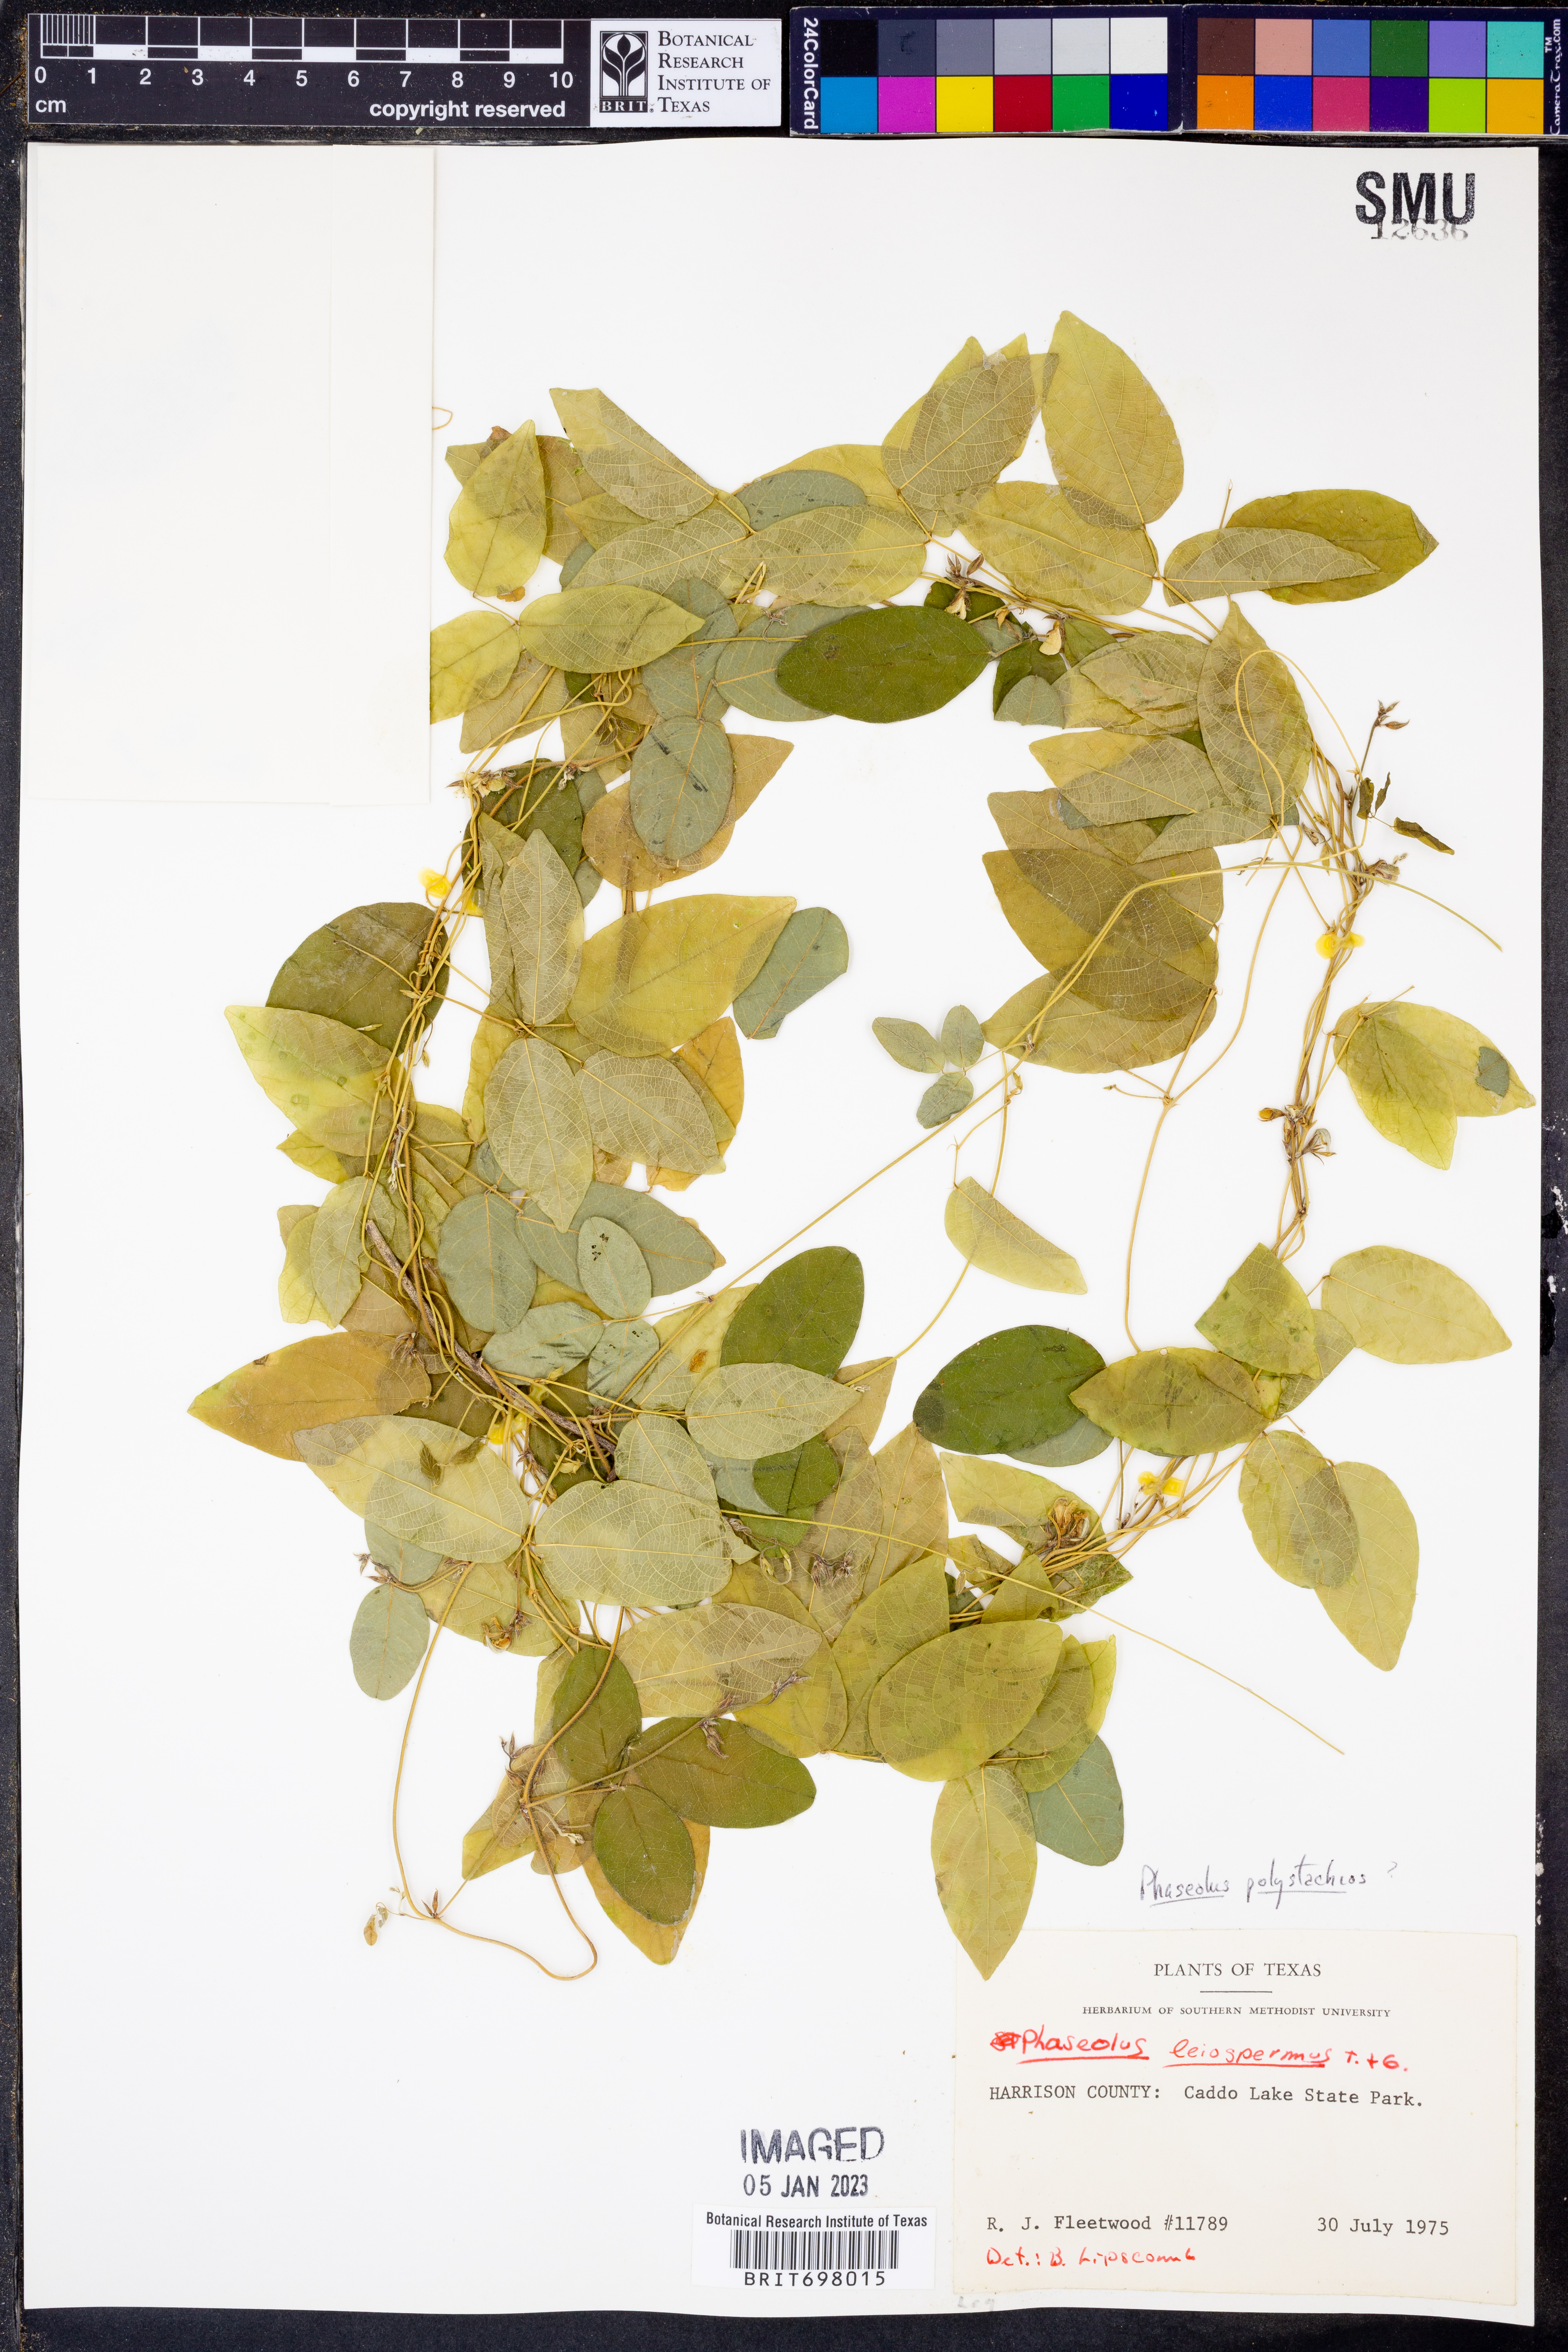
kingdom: Plantae
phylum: Tracheophyta
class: Magnoliopsida
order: Fabales
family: Fabaceae
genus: Phaseolus
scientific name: Phaseolus polystachios
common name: Thicket bean
